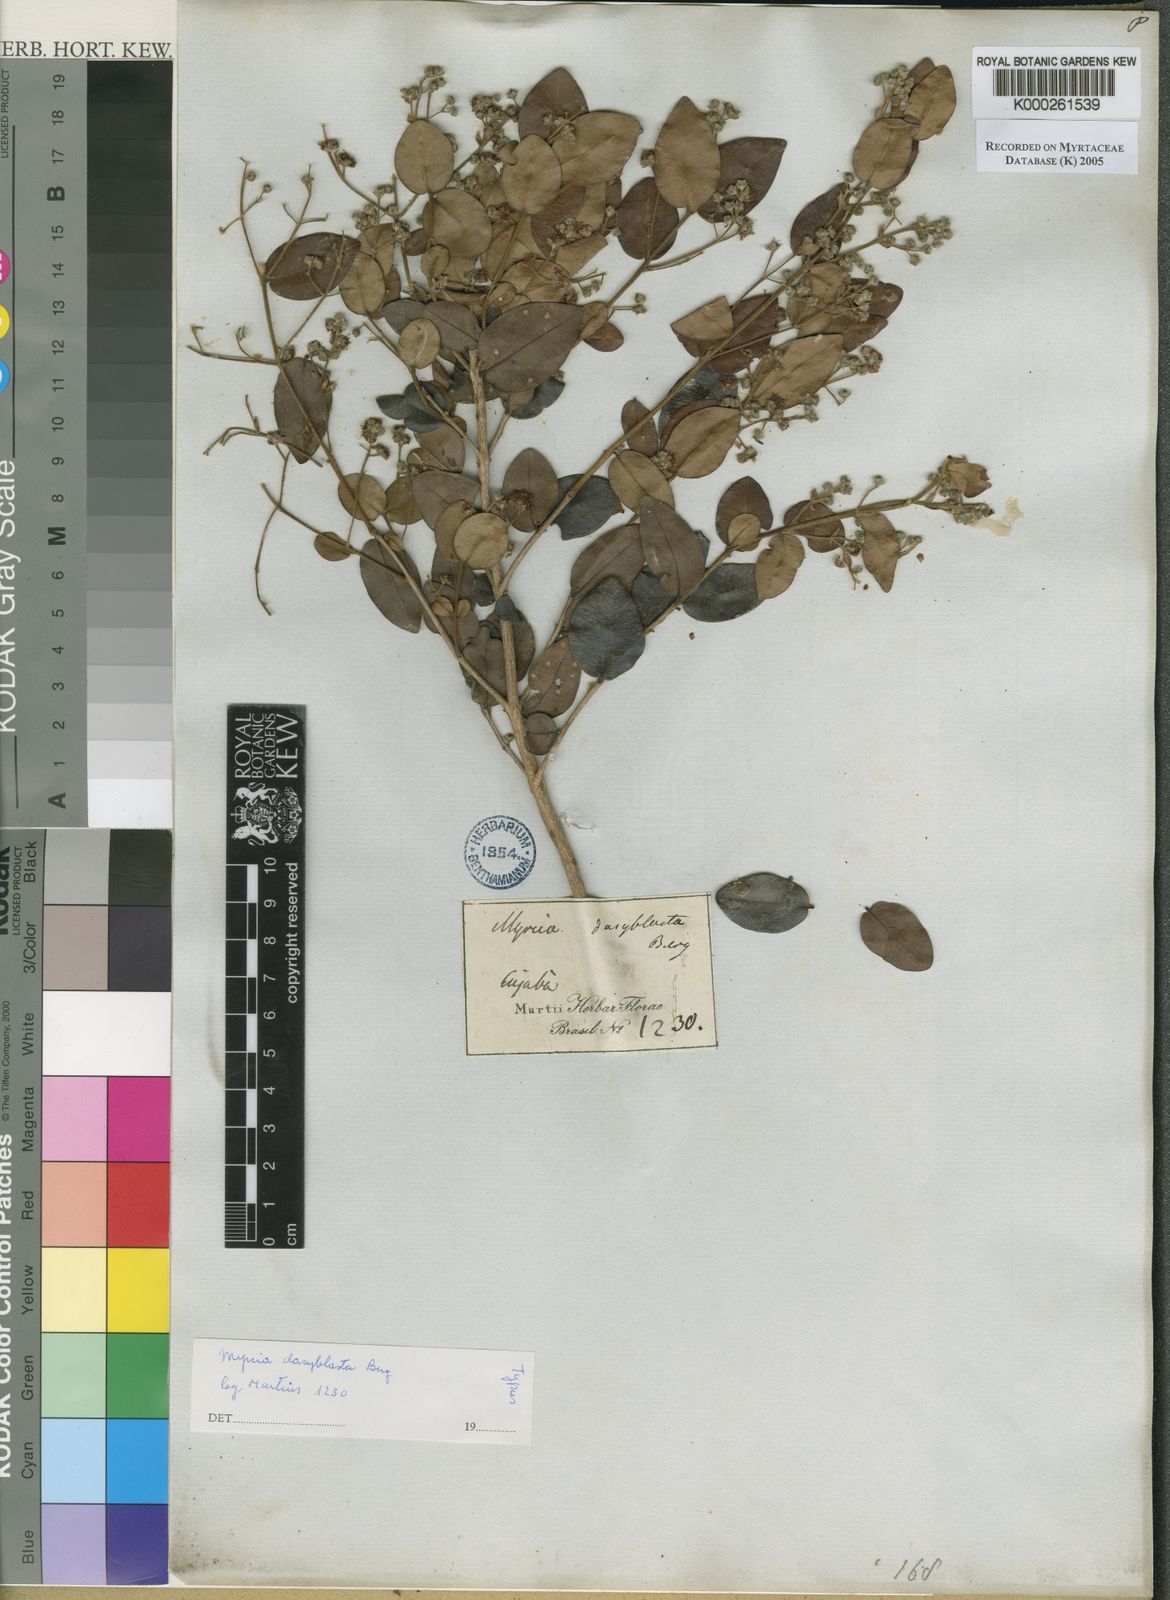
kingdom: Plantae
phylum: Tracheophyta
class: Magnoliopsida
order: Myrtales
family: Myrtaceae
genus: Myrcia
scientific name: Myrcia dasyblasta
